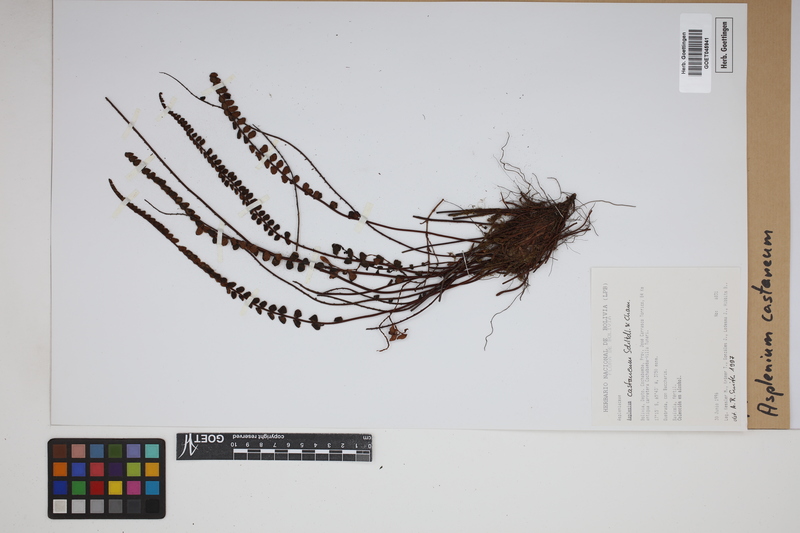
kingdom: Plantae
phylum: Tracheophyta
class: Polypodiopsida
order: Polypodiales
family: Aspleniaceae
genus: Asplenium
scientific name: Asplenium castaneum
